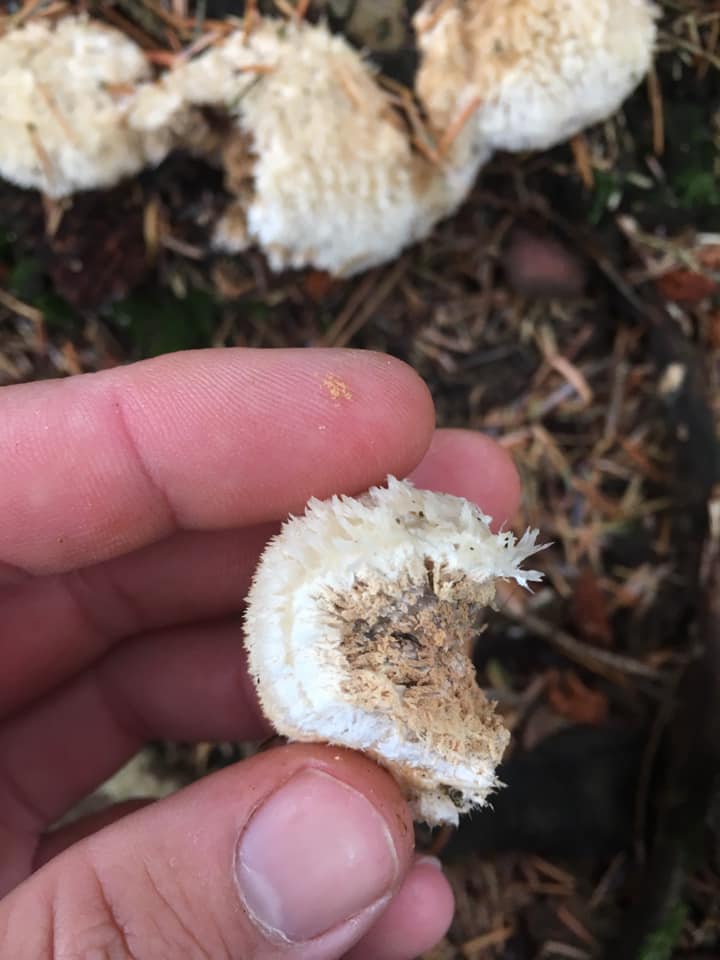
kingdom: Fungi
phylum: Basidiomycota
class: Agaricomycetes
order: Polyporales
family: Dacryobolaceae
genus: Postia
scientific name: Postia ptychogaster
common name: støvende kødporesvamp
